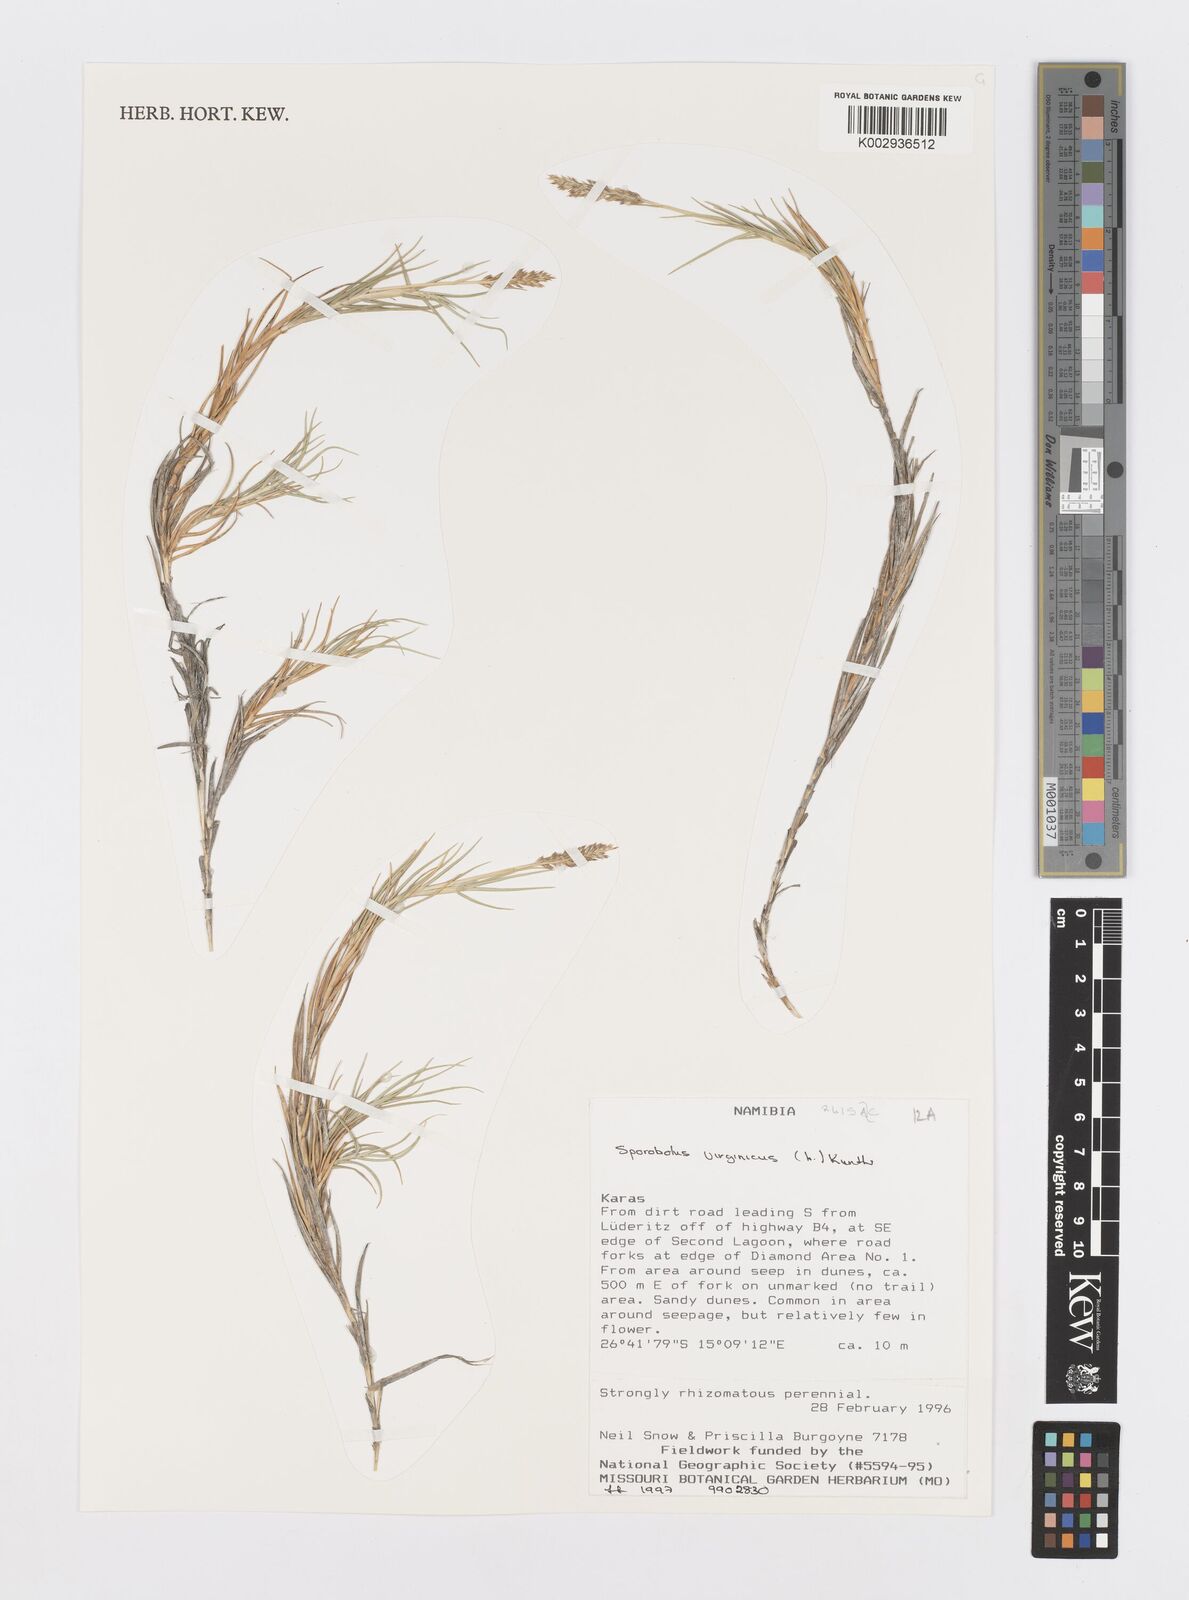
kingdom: Plantae
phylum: Tracheophyta
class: Liliopsida
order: Poales
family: Poaceae
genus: Sporobolus
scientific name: Sporobolus virginicus
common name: Beach dropseed
